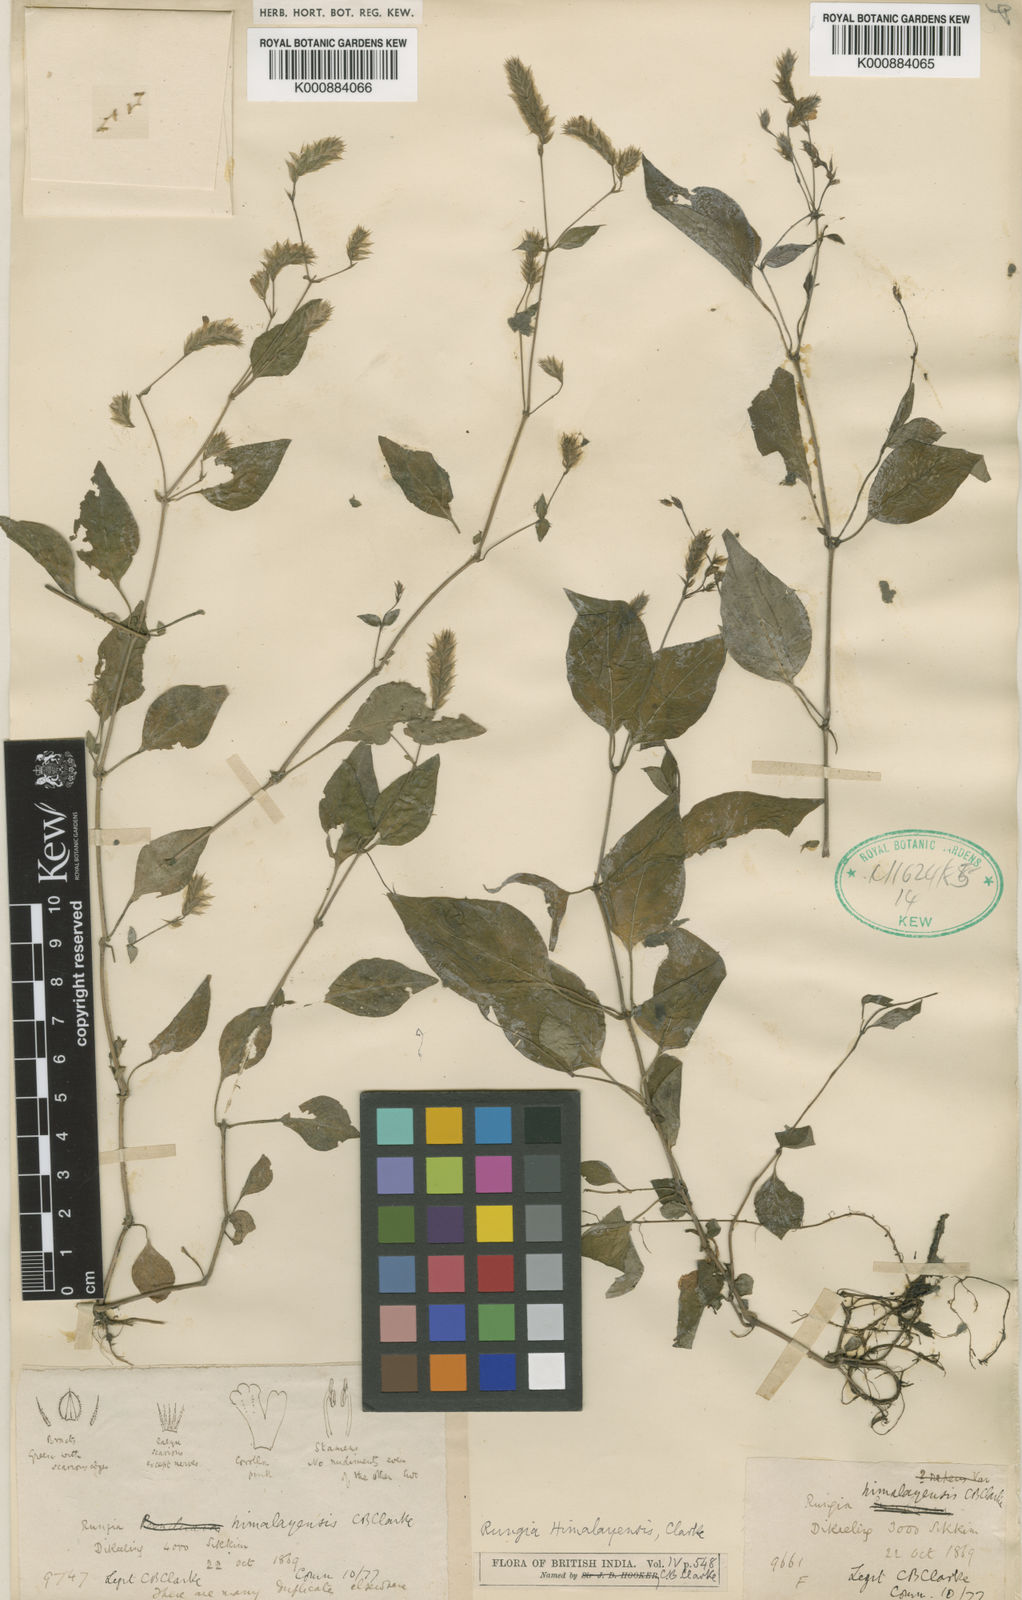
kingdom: Plantae
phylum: Tracheophyta
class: Magnoliopsida
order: Lamiales
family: Acanthaceae
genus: Rungia
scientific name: Rungia himalayensis
